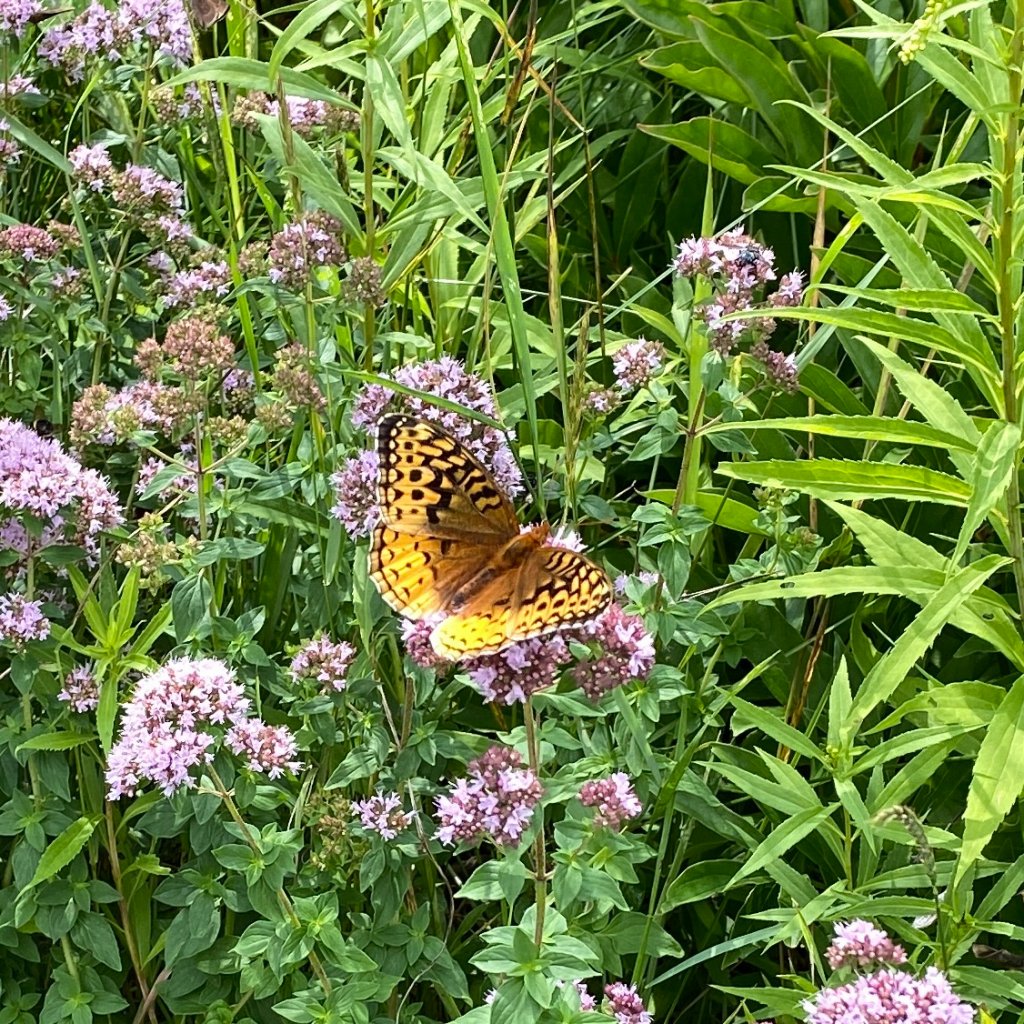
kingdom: Animalia
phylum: Arthropoda
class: Insecta
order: Lepidoptera
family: Nymphalidae
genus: Speyeria
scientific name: Speyeria cybele
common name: Great Spangled Fritillary
